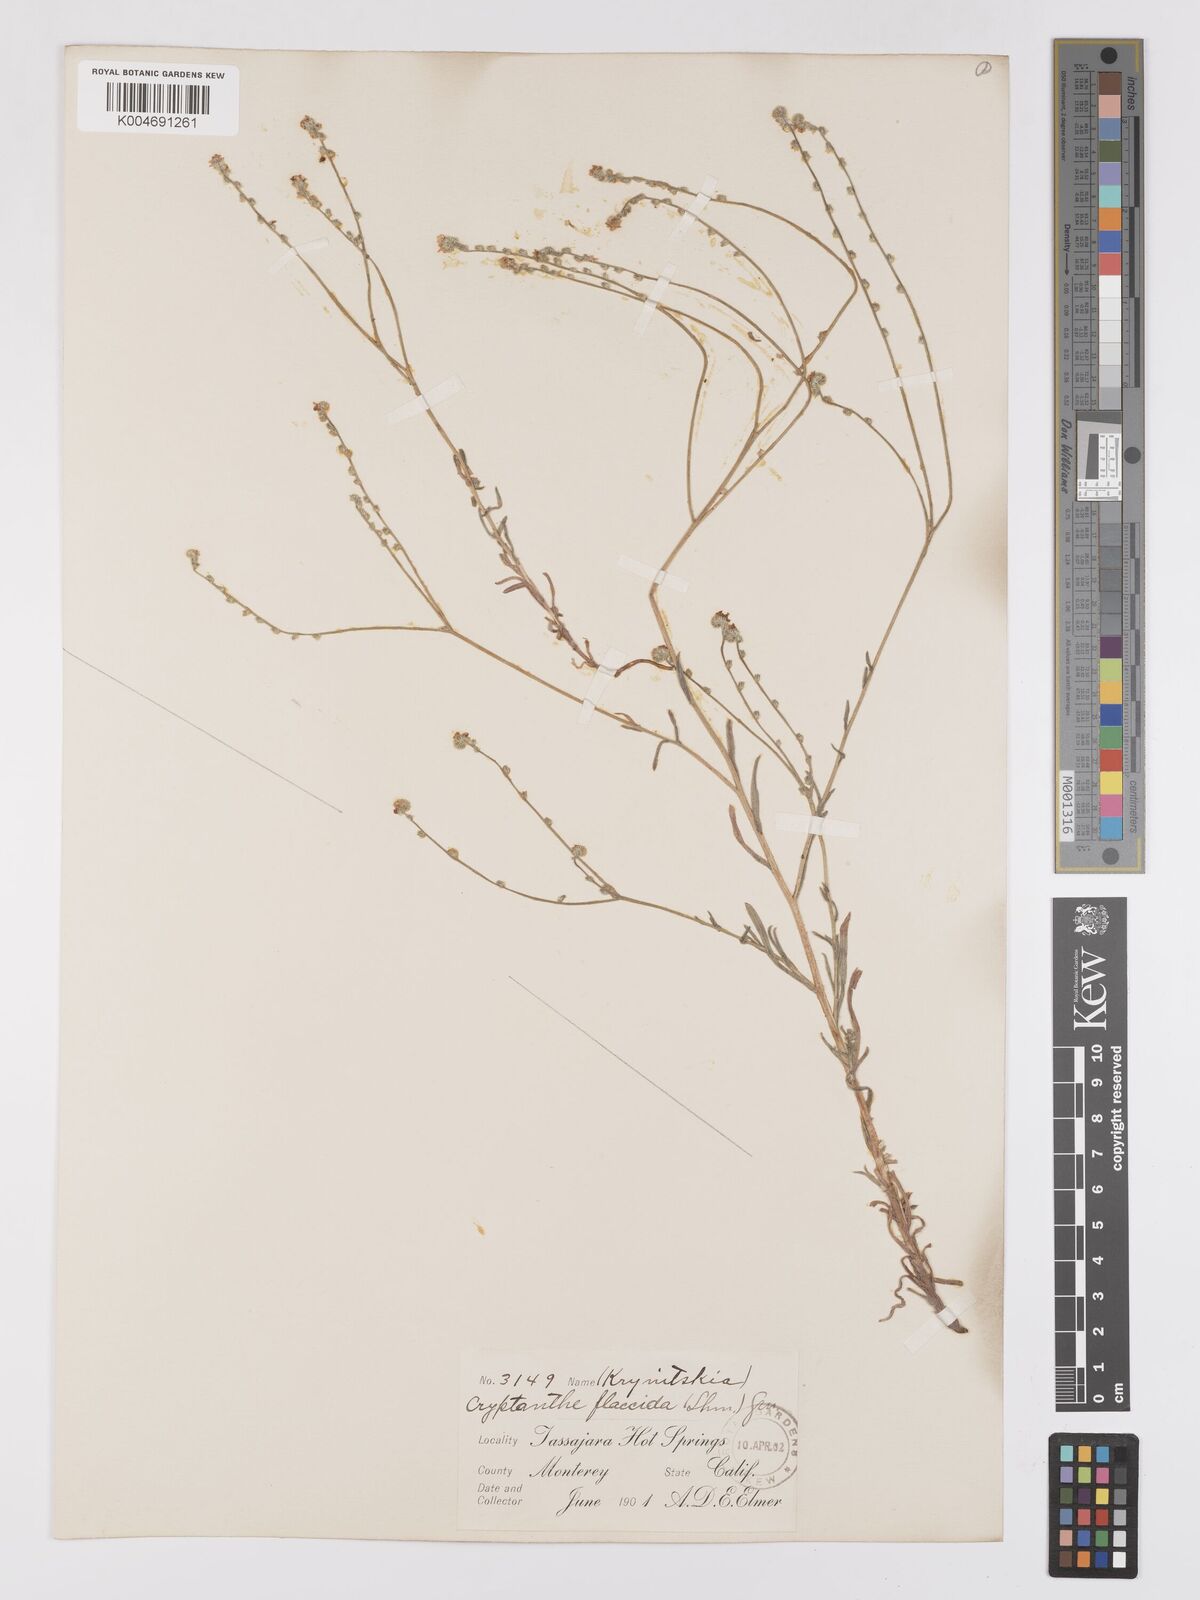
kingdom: Plantae
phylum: Tracheophyta
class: Magnoliopsida
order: Boraginales
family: Boraginaceae
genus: Cryptantha
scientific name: Cryptantha flaccida
